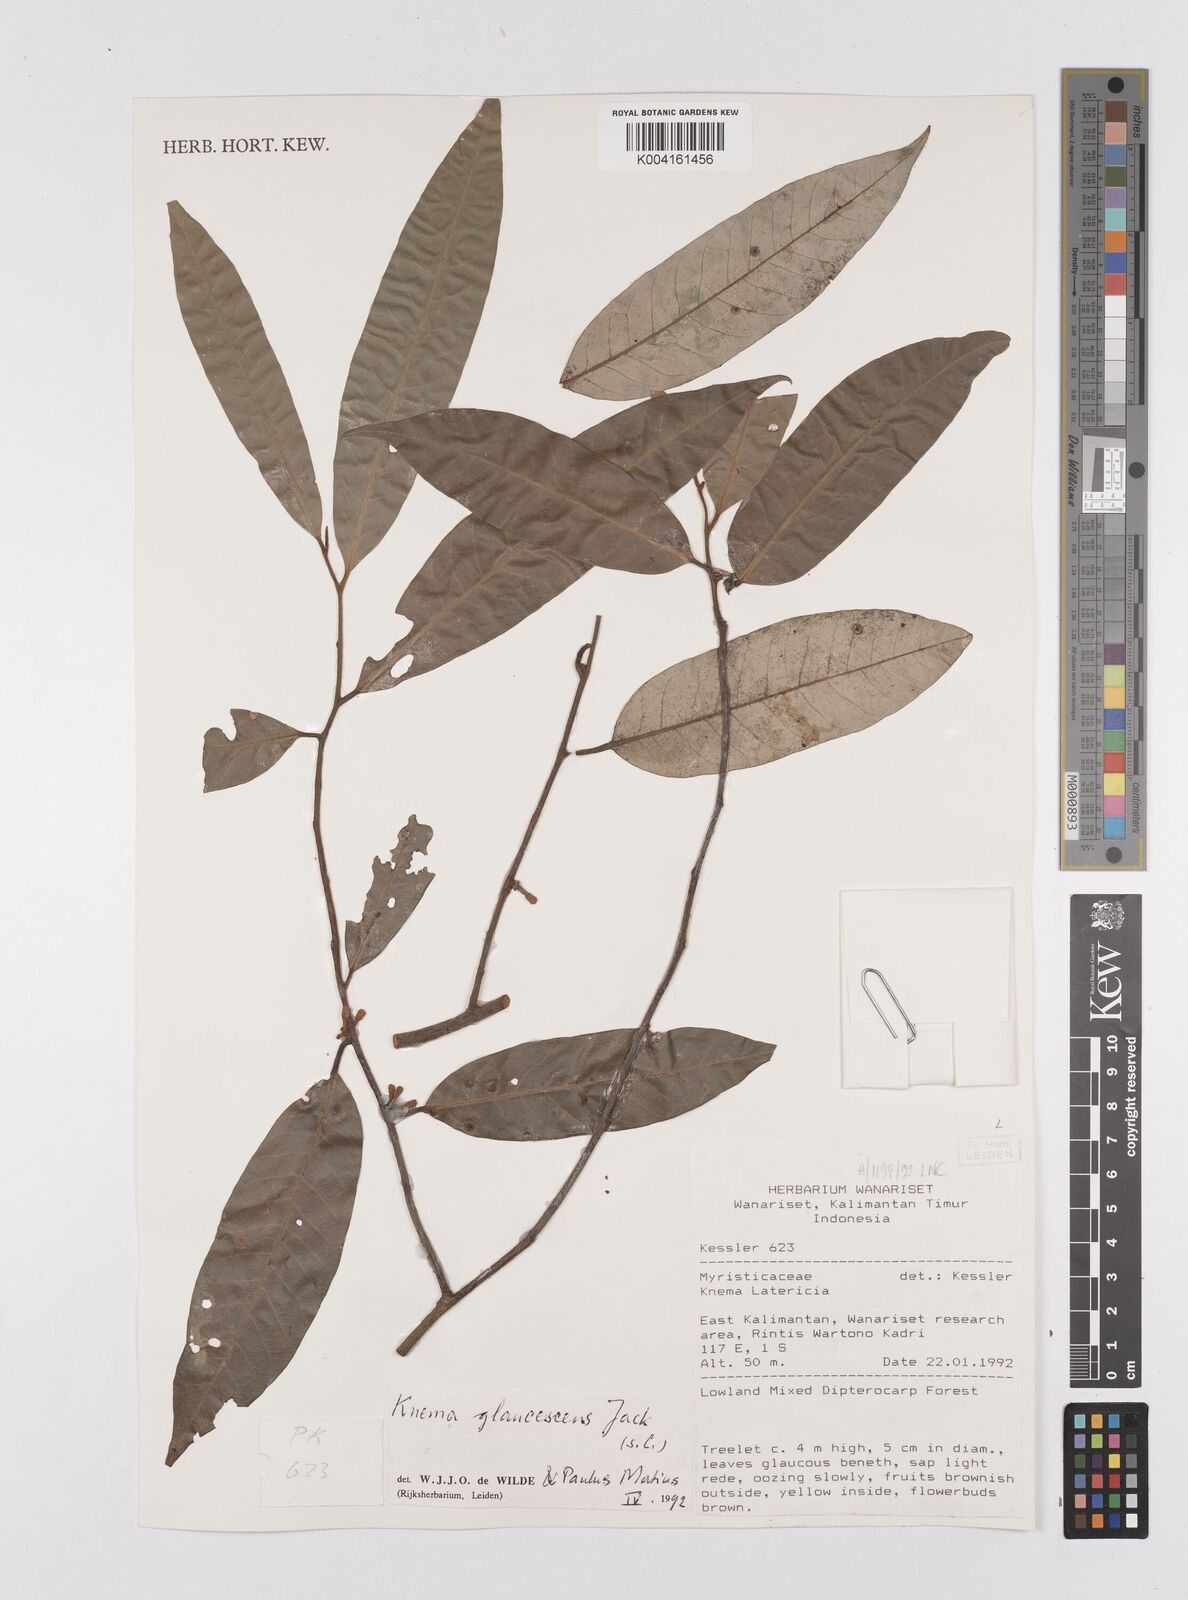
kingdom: Plantae
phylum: Tracheophyta
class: Magnoliopsida
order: Magnoliales
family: Myristicaceae
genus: Knema
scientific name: Knema
